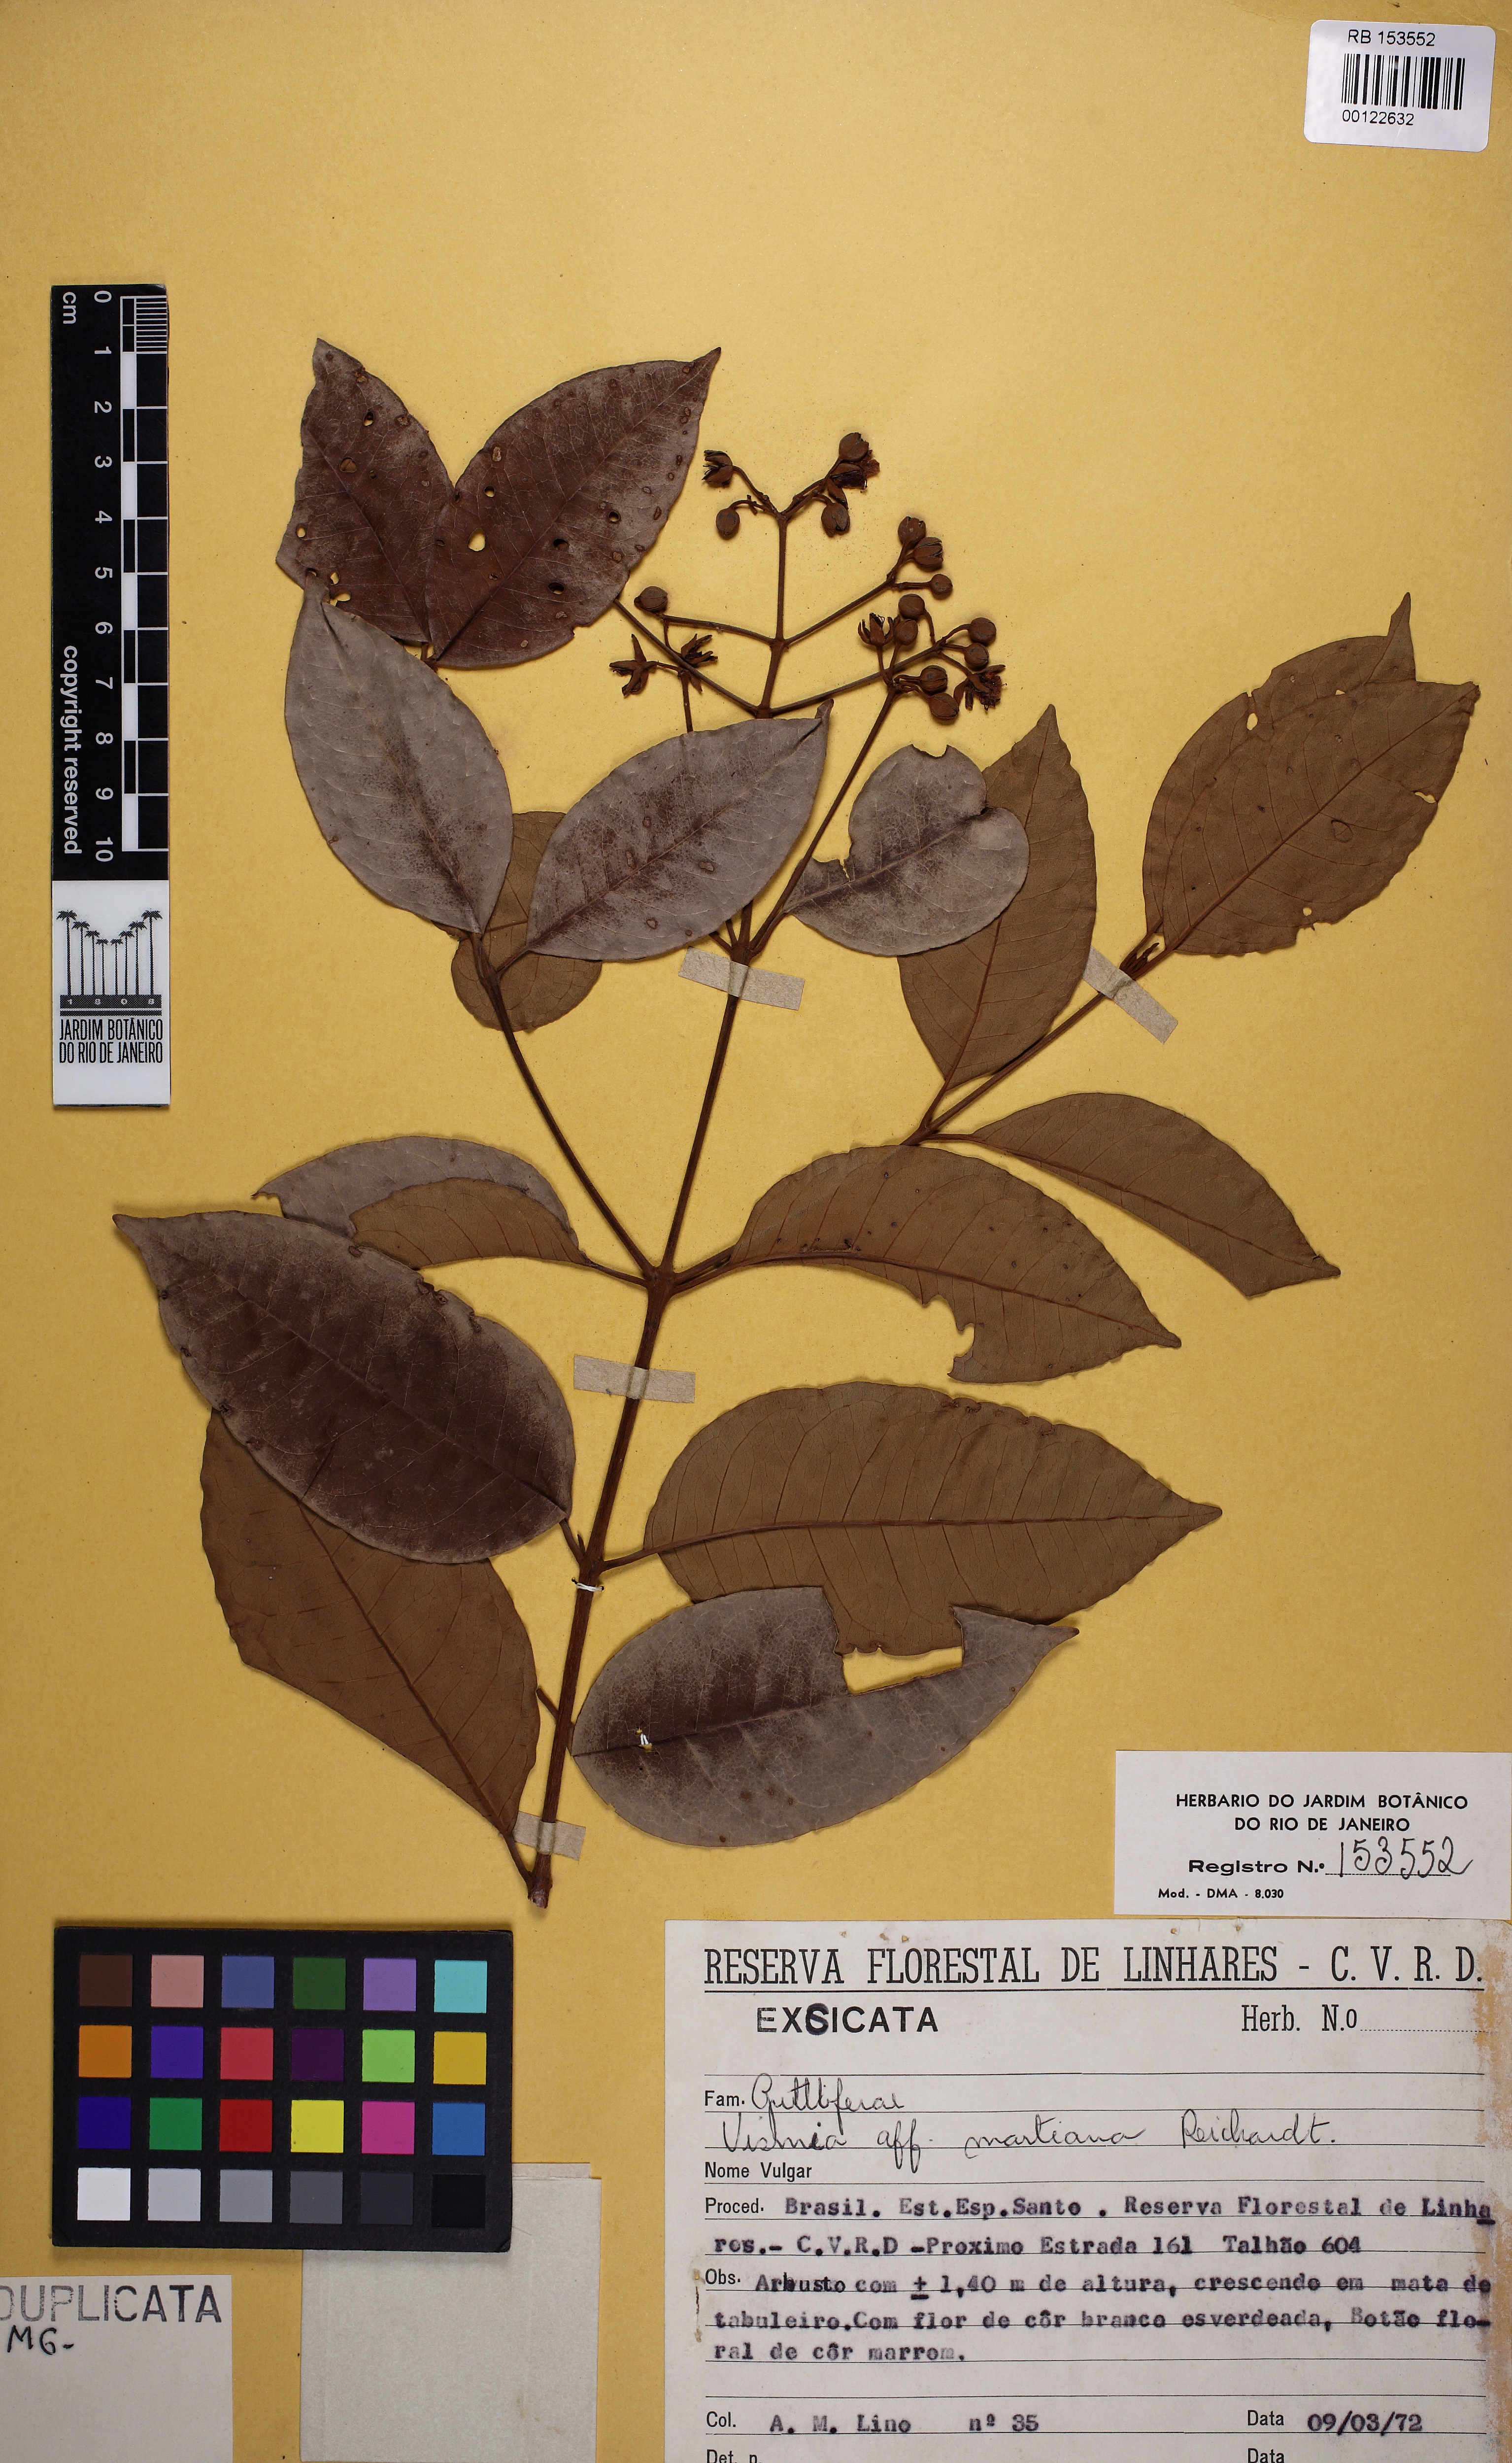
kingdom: Plantae
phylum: Tracheophyta
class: Magnoliopsida
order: Malpighiales
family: Hypericaceae
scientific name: Hypericaceae
